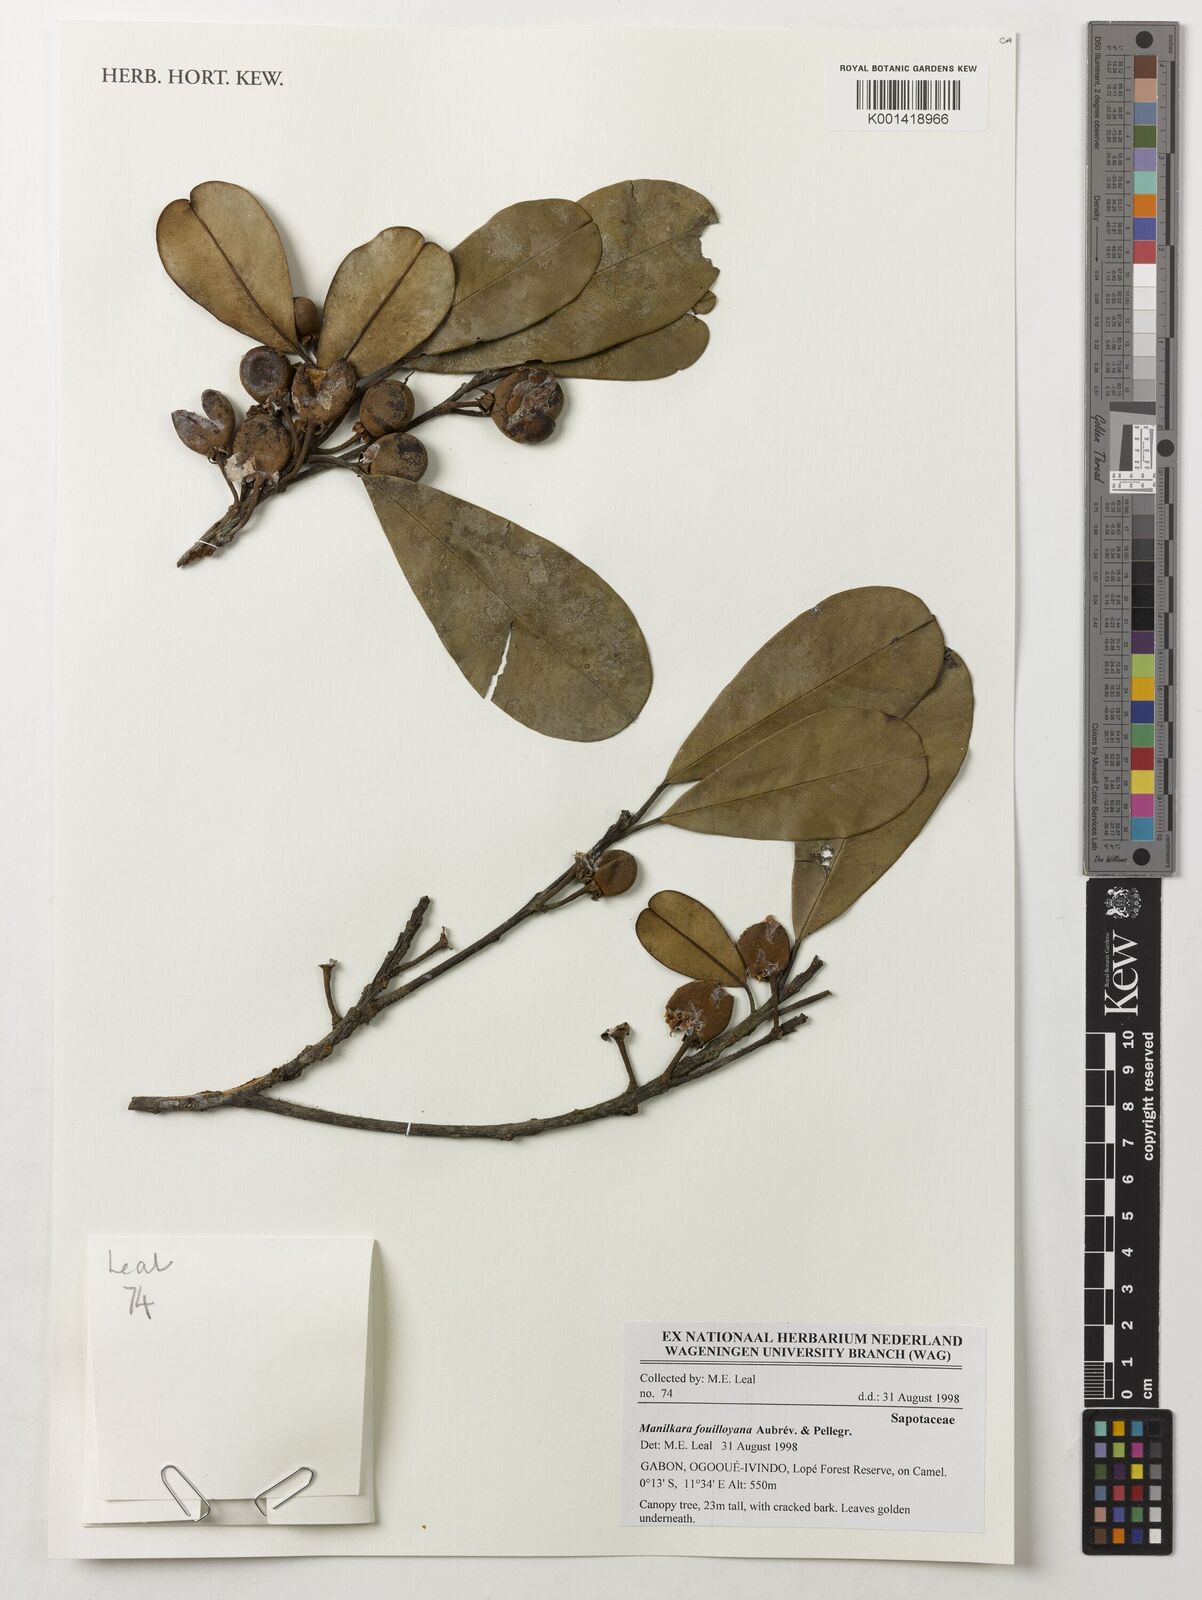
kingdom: Plantae
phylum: Tracheophyta
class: Magnoliopsida
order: Ericales
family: Sapotaceae
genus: Manilkara
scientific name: Manilkara fouilloyana
